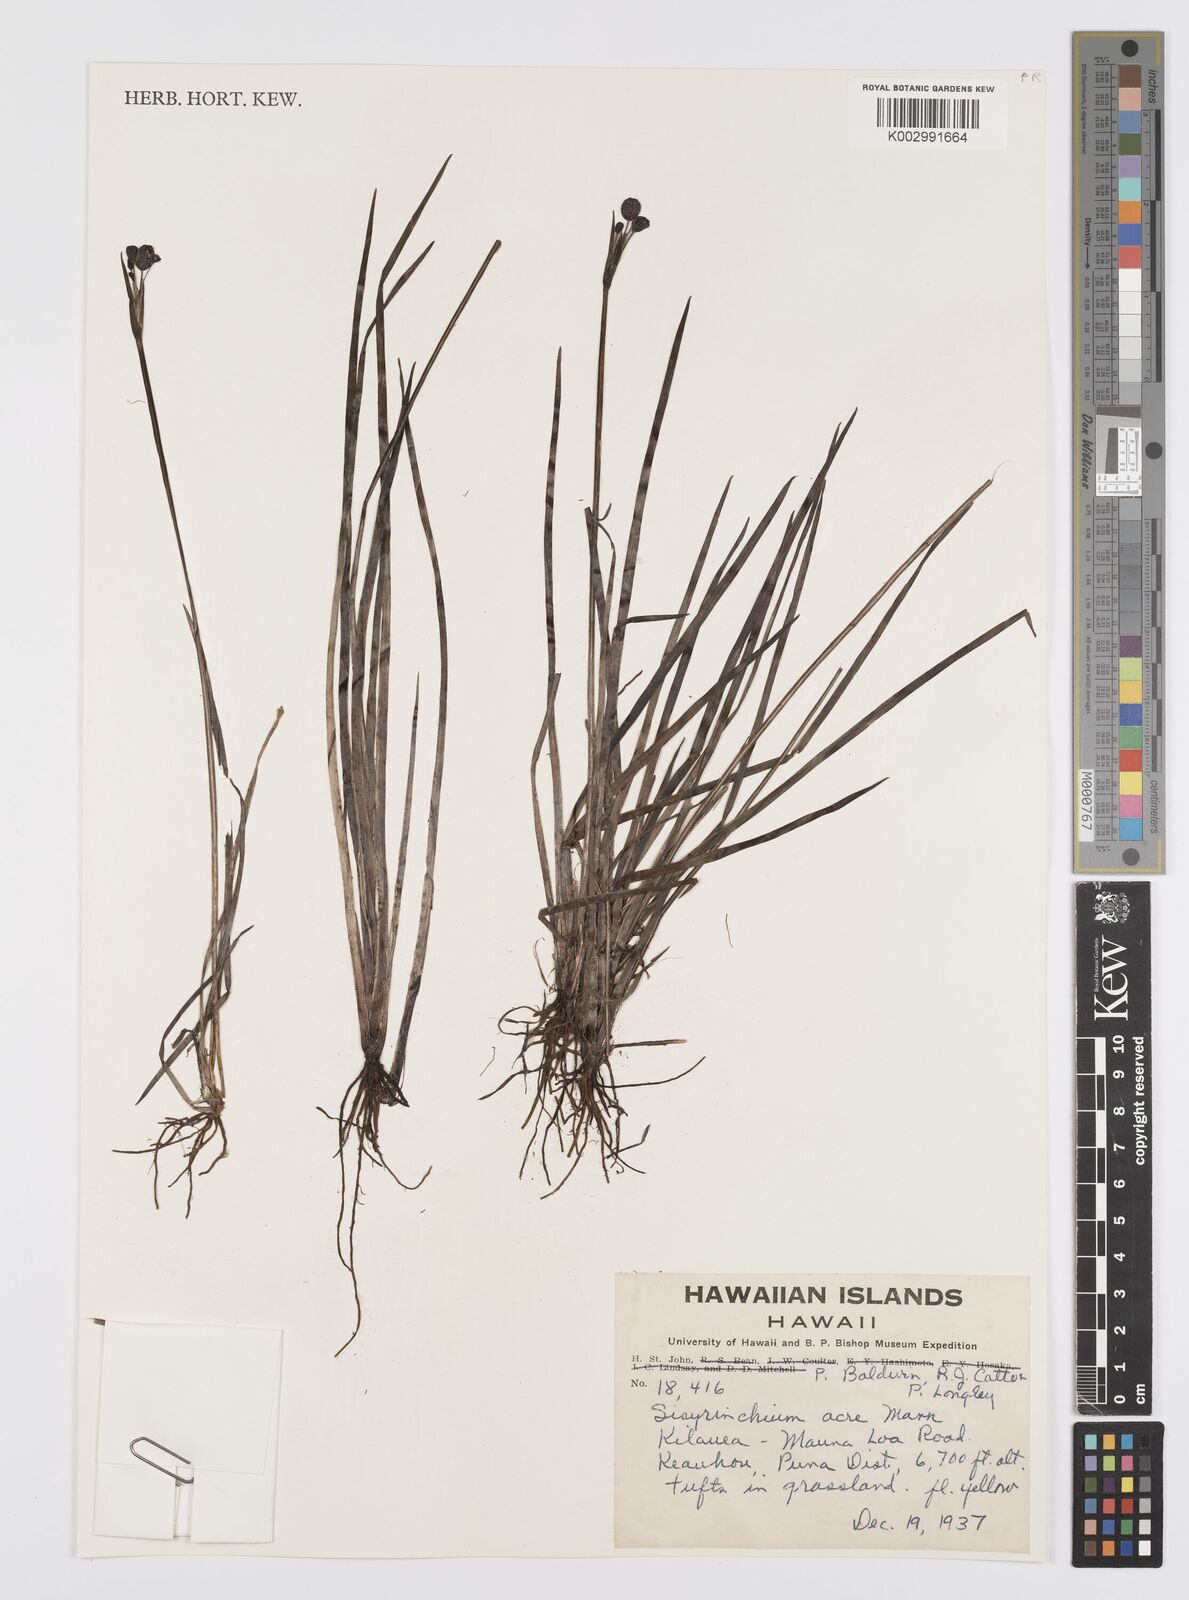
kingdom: Plantae
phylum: Tracheophyta
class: Liliopsida
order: Asparagales
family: Iridaceae
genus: Sisyrinchium
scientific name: Sisyrinchium acre
